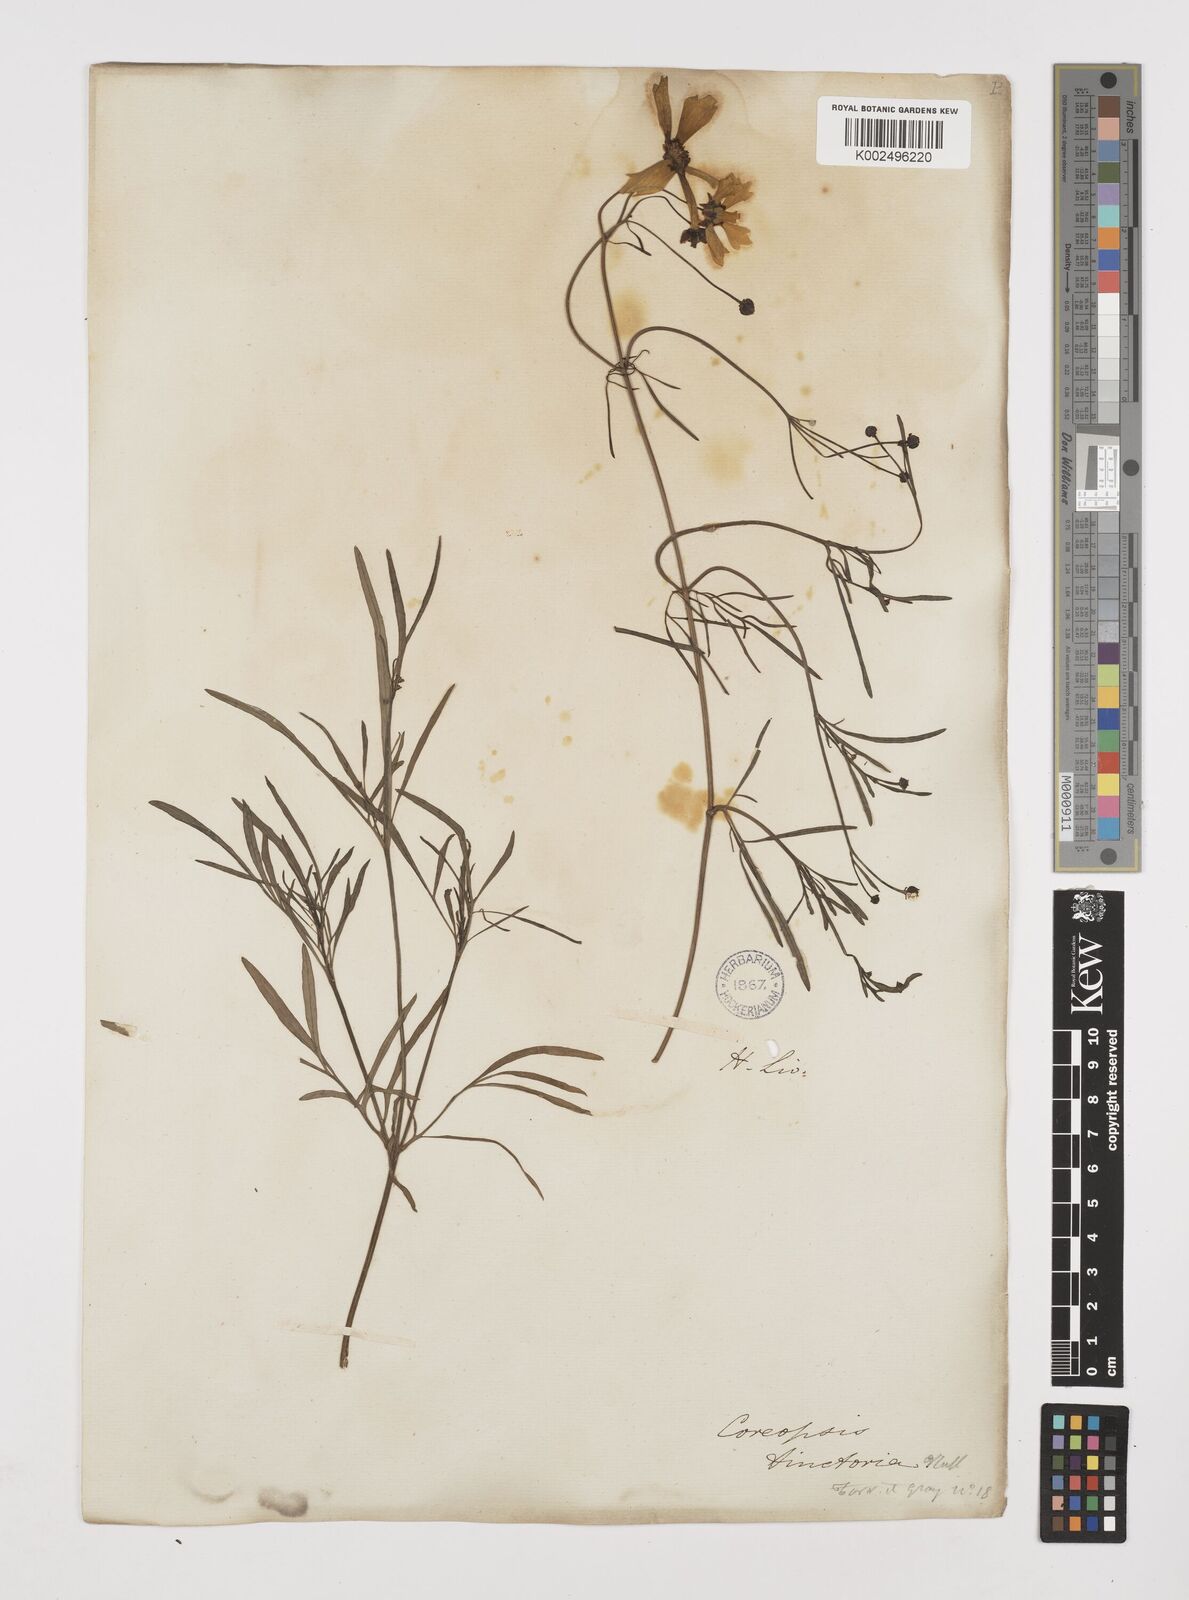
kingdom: Plantae
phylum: Tracheophyta
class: Magnoliopsida
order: Asterales
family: Asteraceae
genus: Coreopsis
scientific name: Coreopsis tinctoria
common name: Garden tickseed
